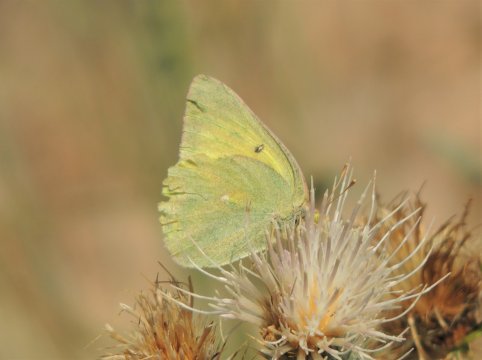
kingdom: Animalia
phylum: Arthropoda
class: Insecta
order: Lepidoptera
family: Pieridae
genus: Colias
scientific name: Colias alexandra
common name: Queen Alexandra's Sulphur
